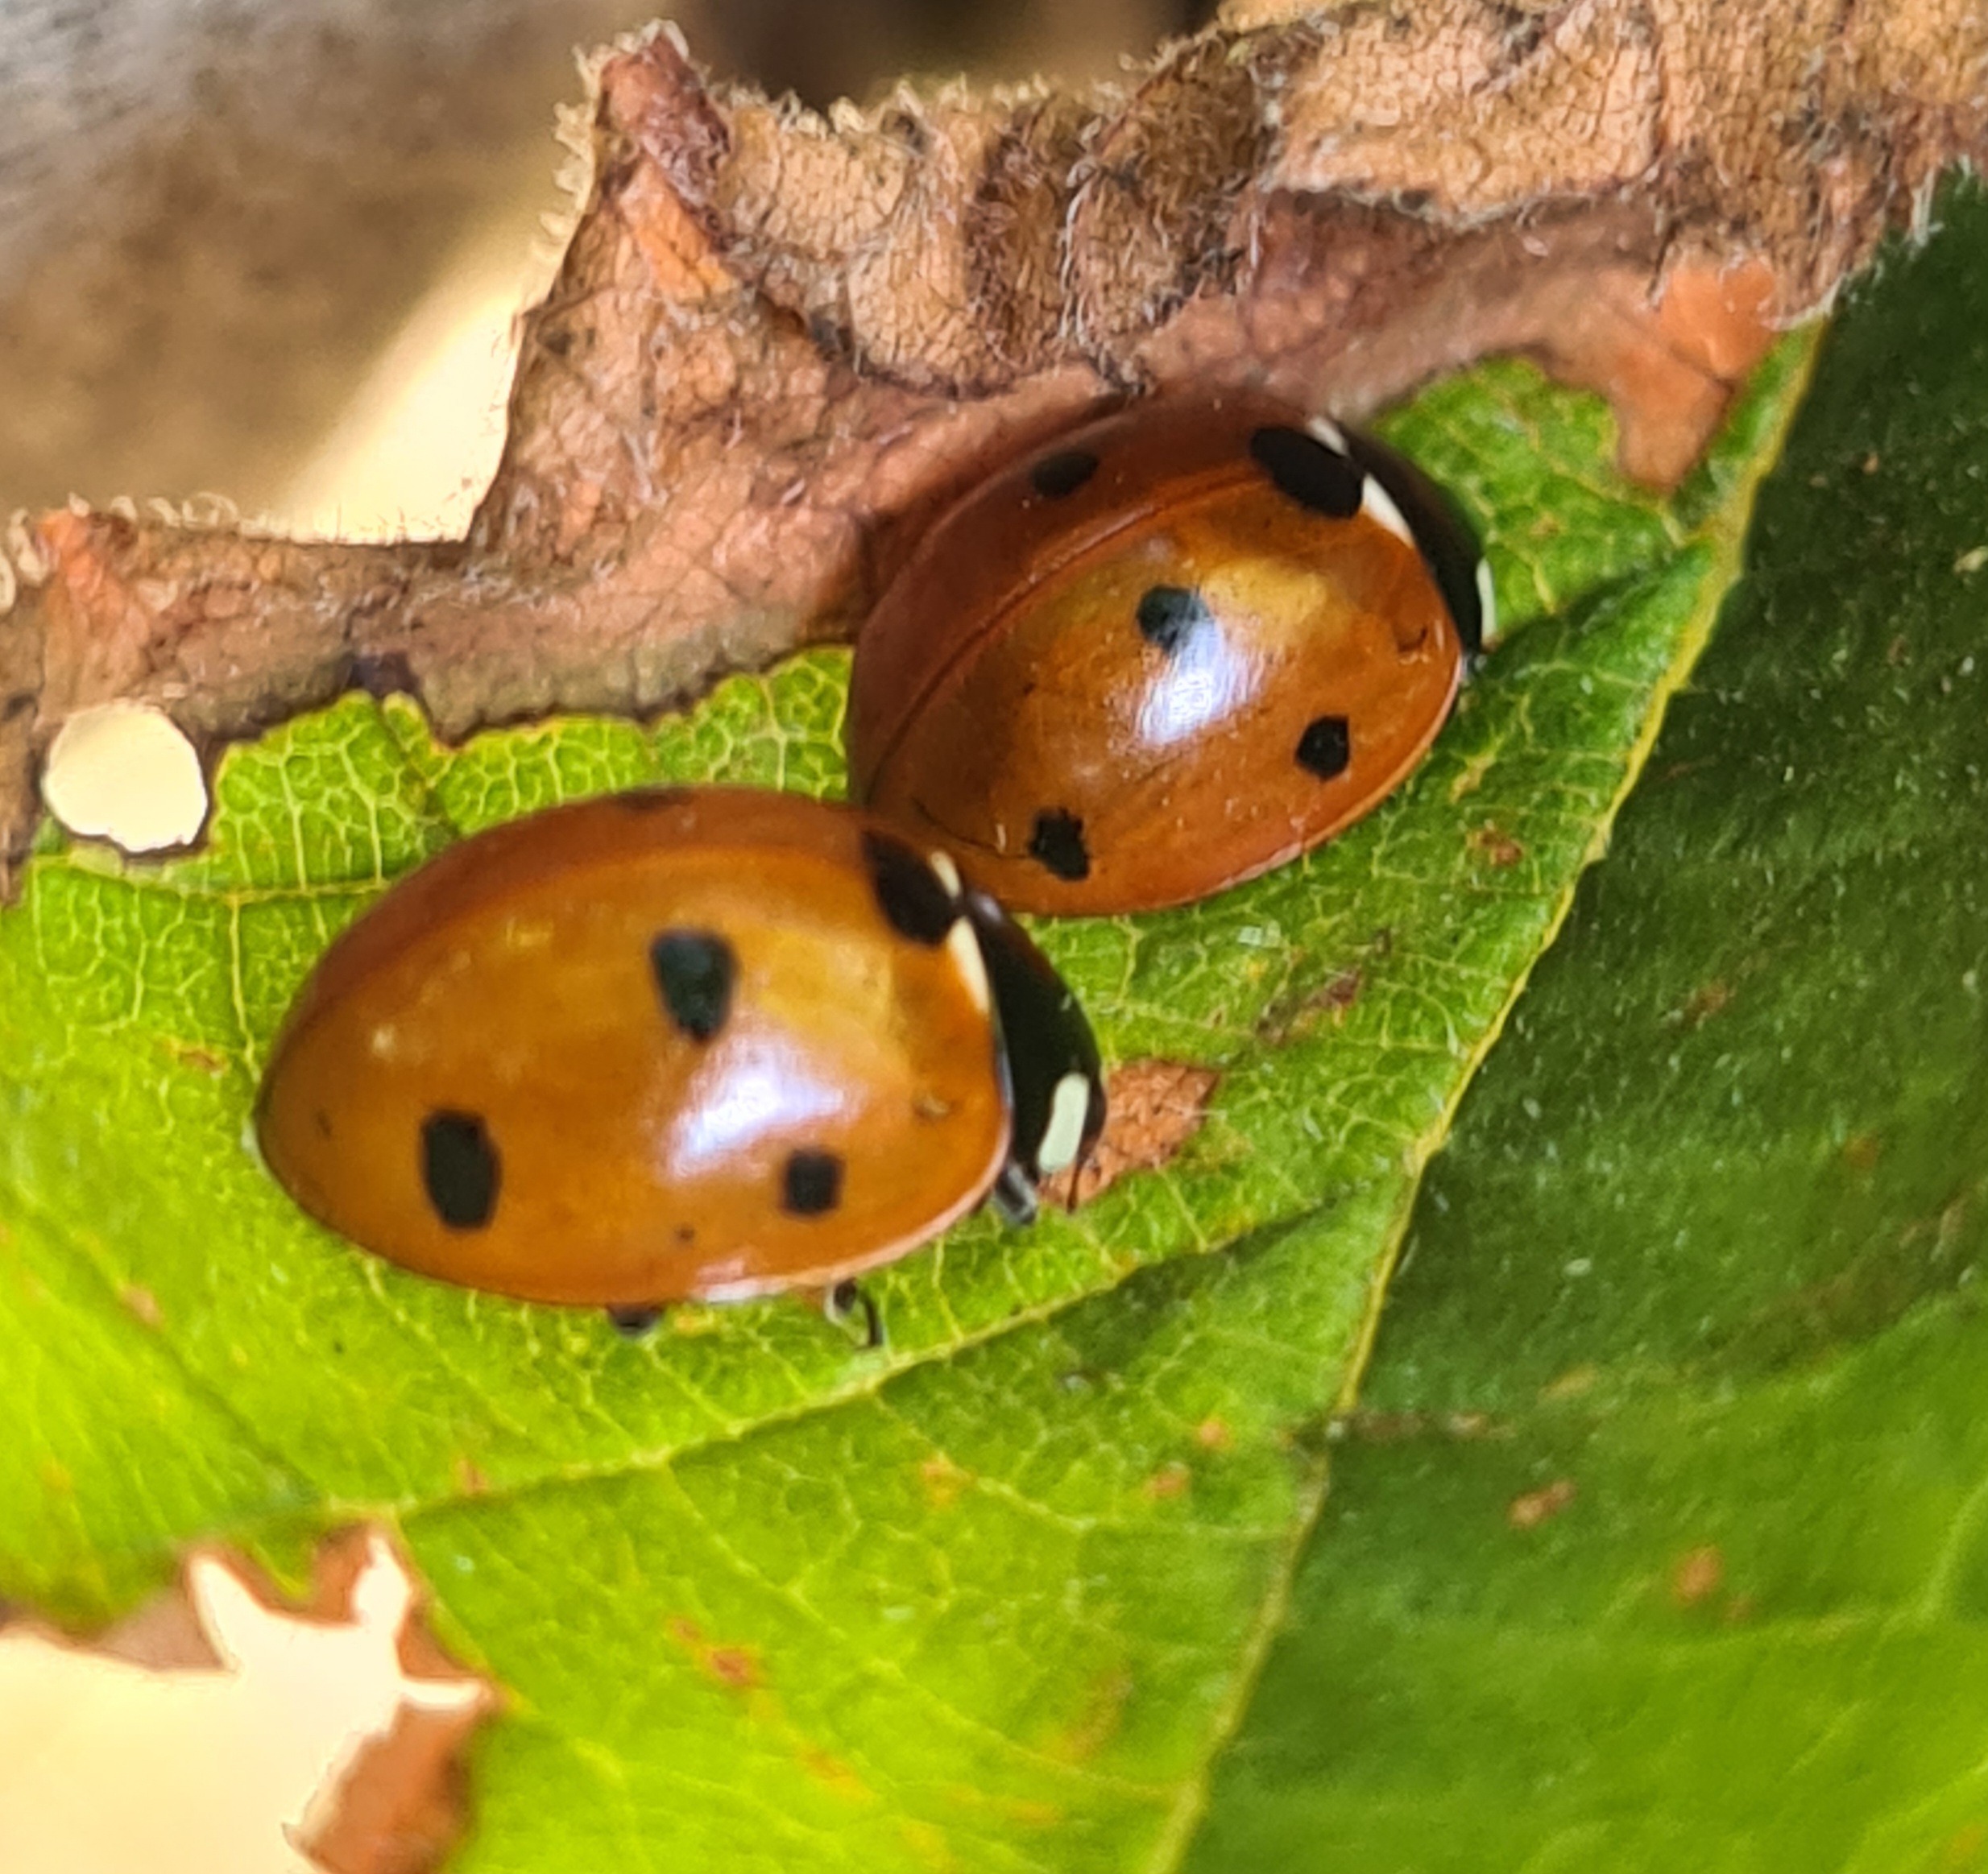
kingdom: Animalia
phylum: Arthropoda
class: Insecta
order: Coleoptera
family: Coccinellidae
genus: Coccinella
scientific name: Coccinella septempunctata
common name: Syvplettet mariehøne
